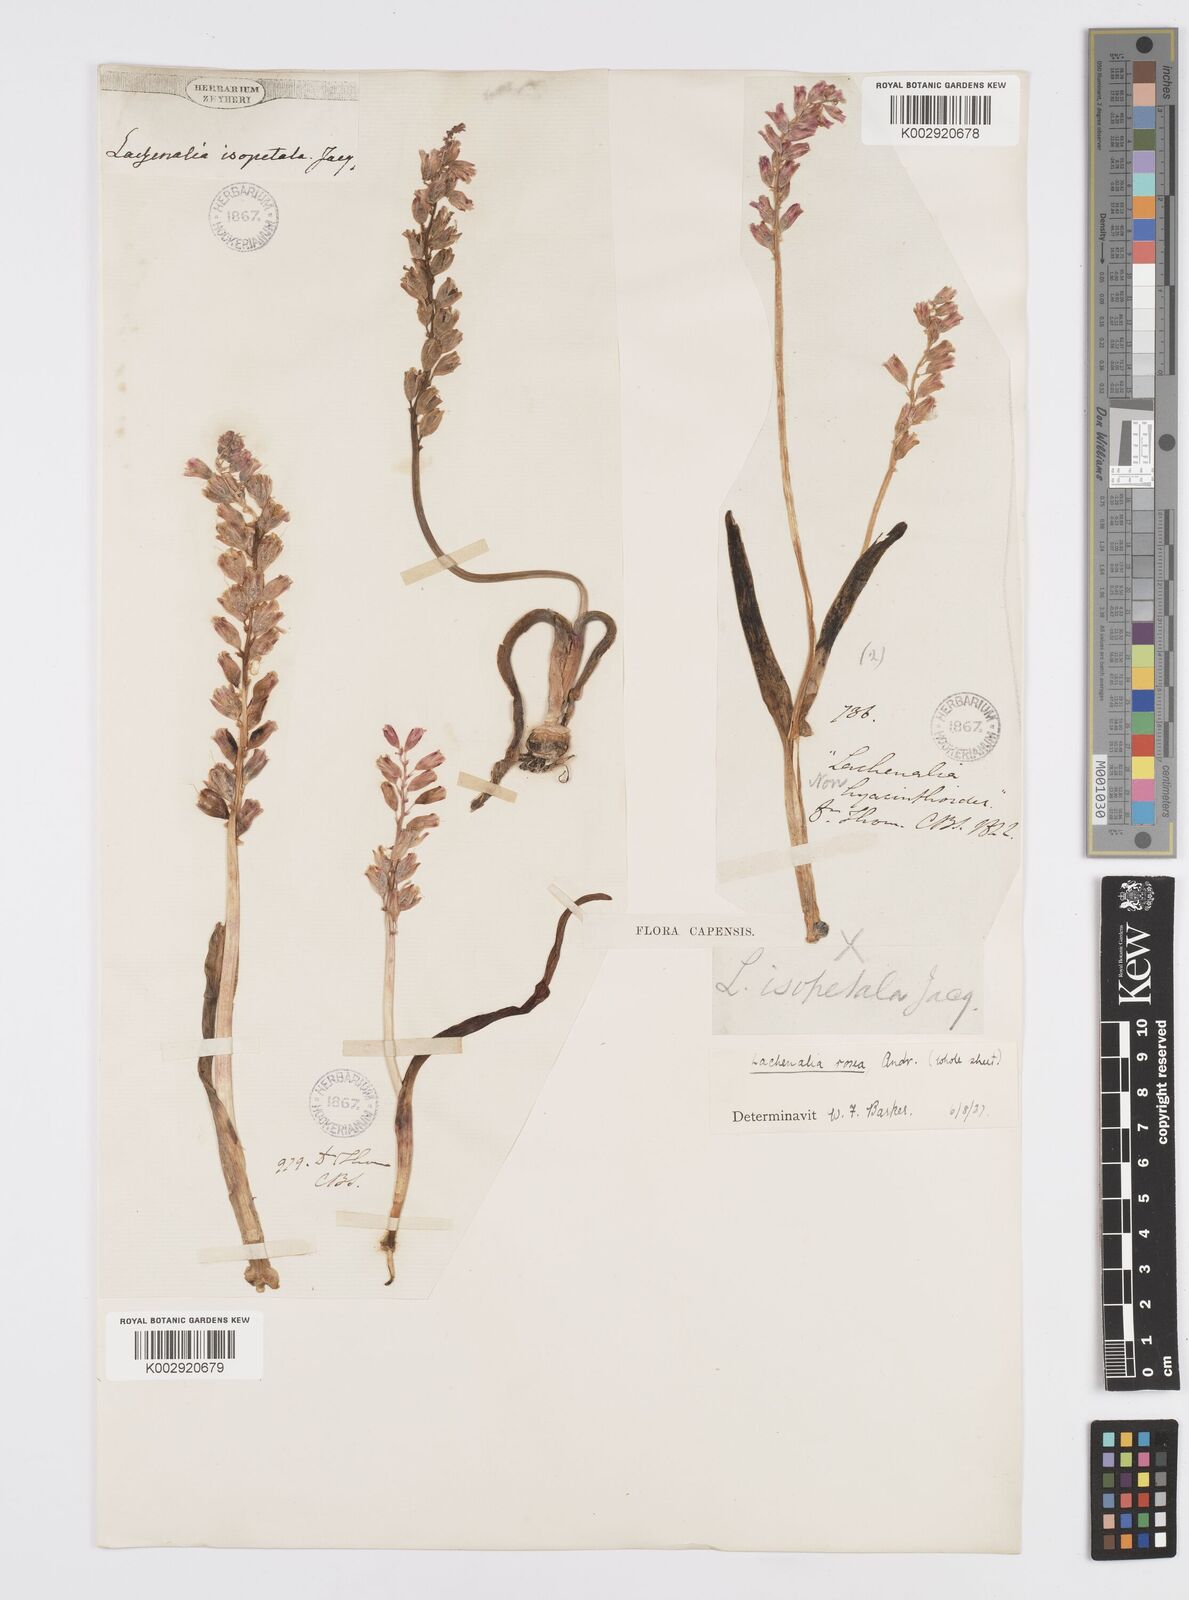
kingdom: Plantae
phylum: Tracheophyta
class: Liliopsida
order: Asparagales
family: Asparagaceae
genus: Lachenalia
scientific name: Lachenalia rosea
